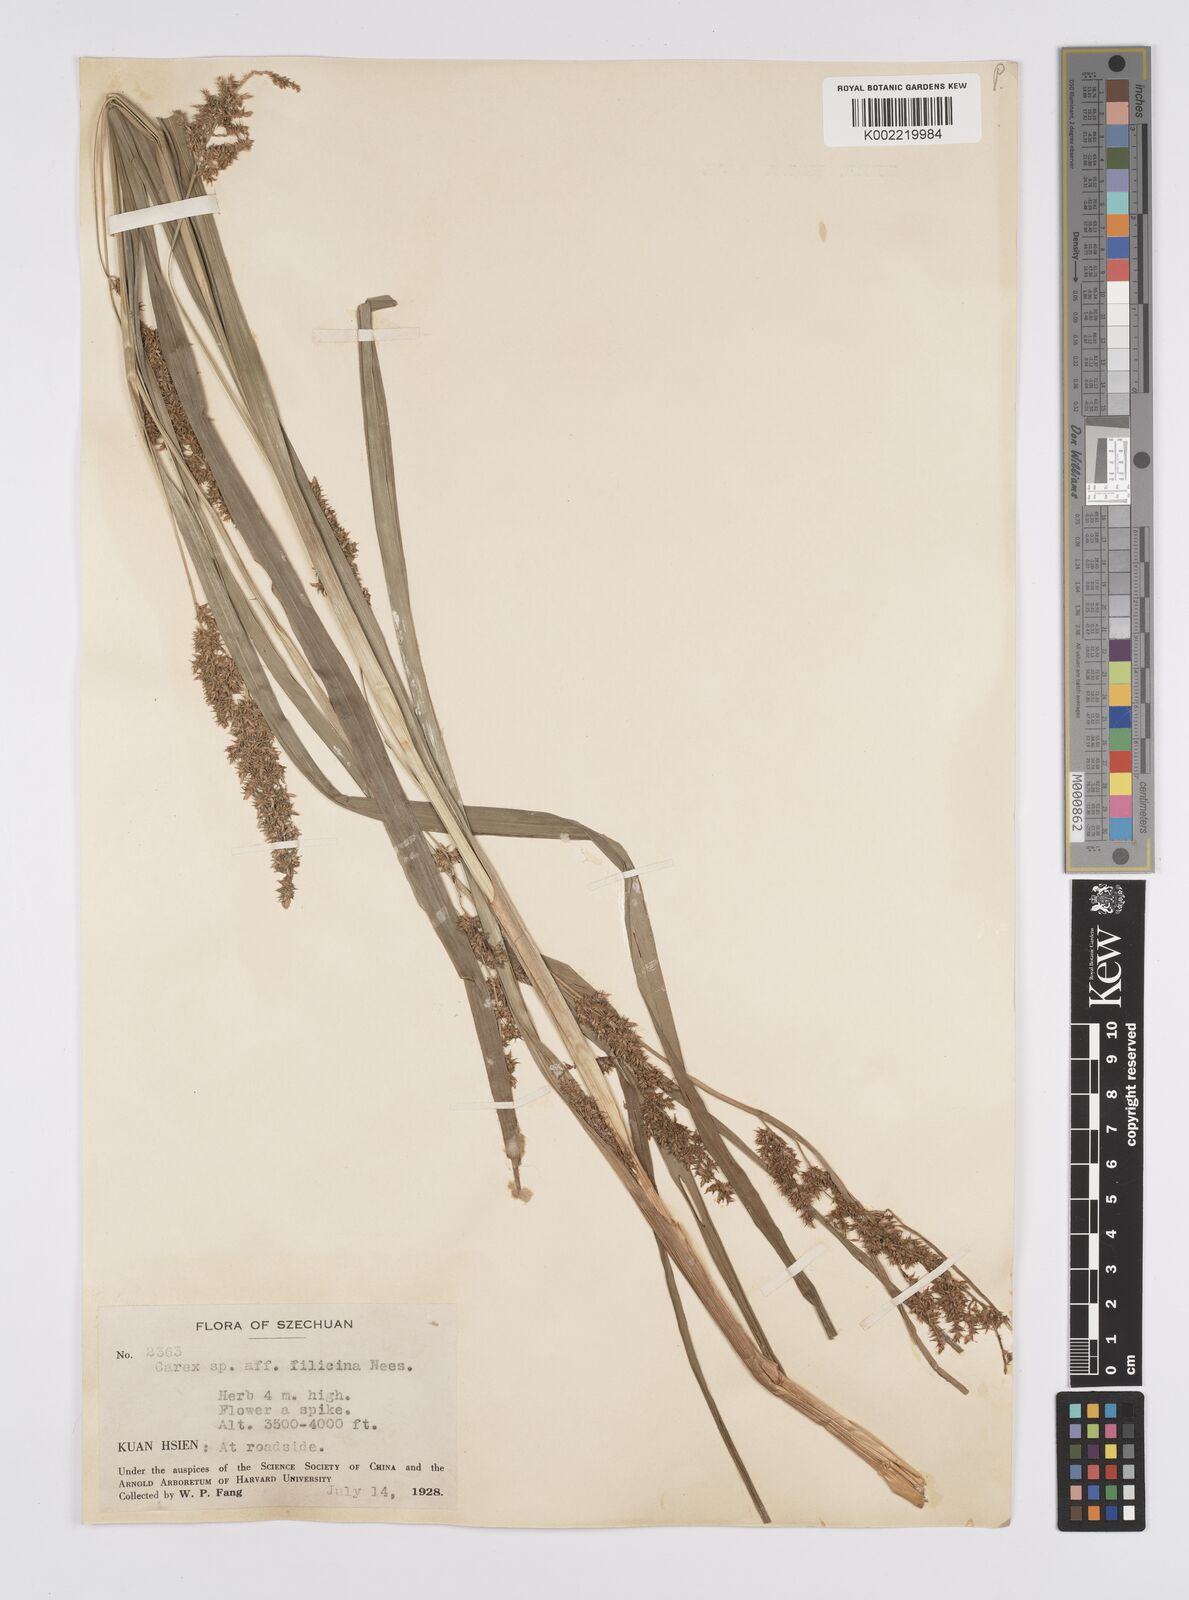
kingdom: Plantae
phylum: Tracheophyta
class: Liliopsida
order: Poales
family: Cyperaceae
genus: Carex
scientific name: Carex filicina
